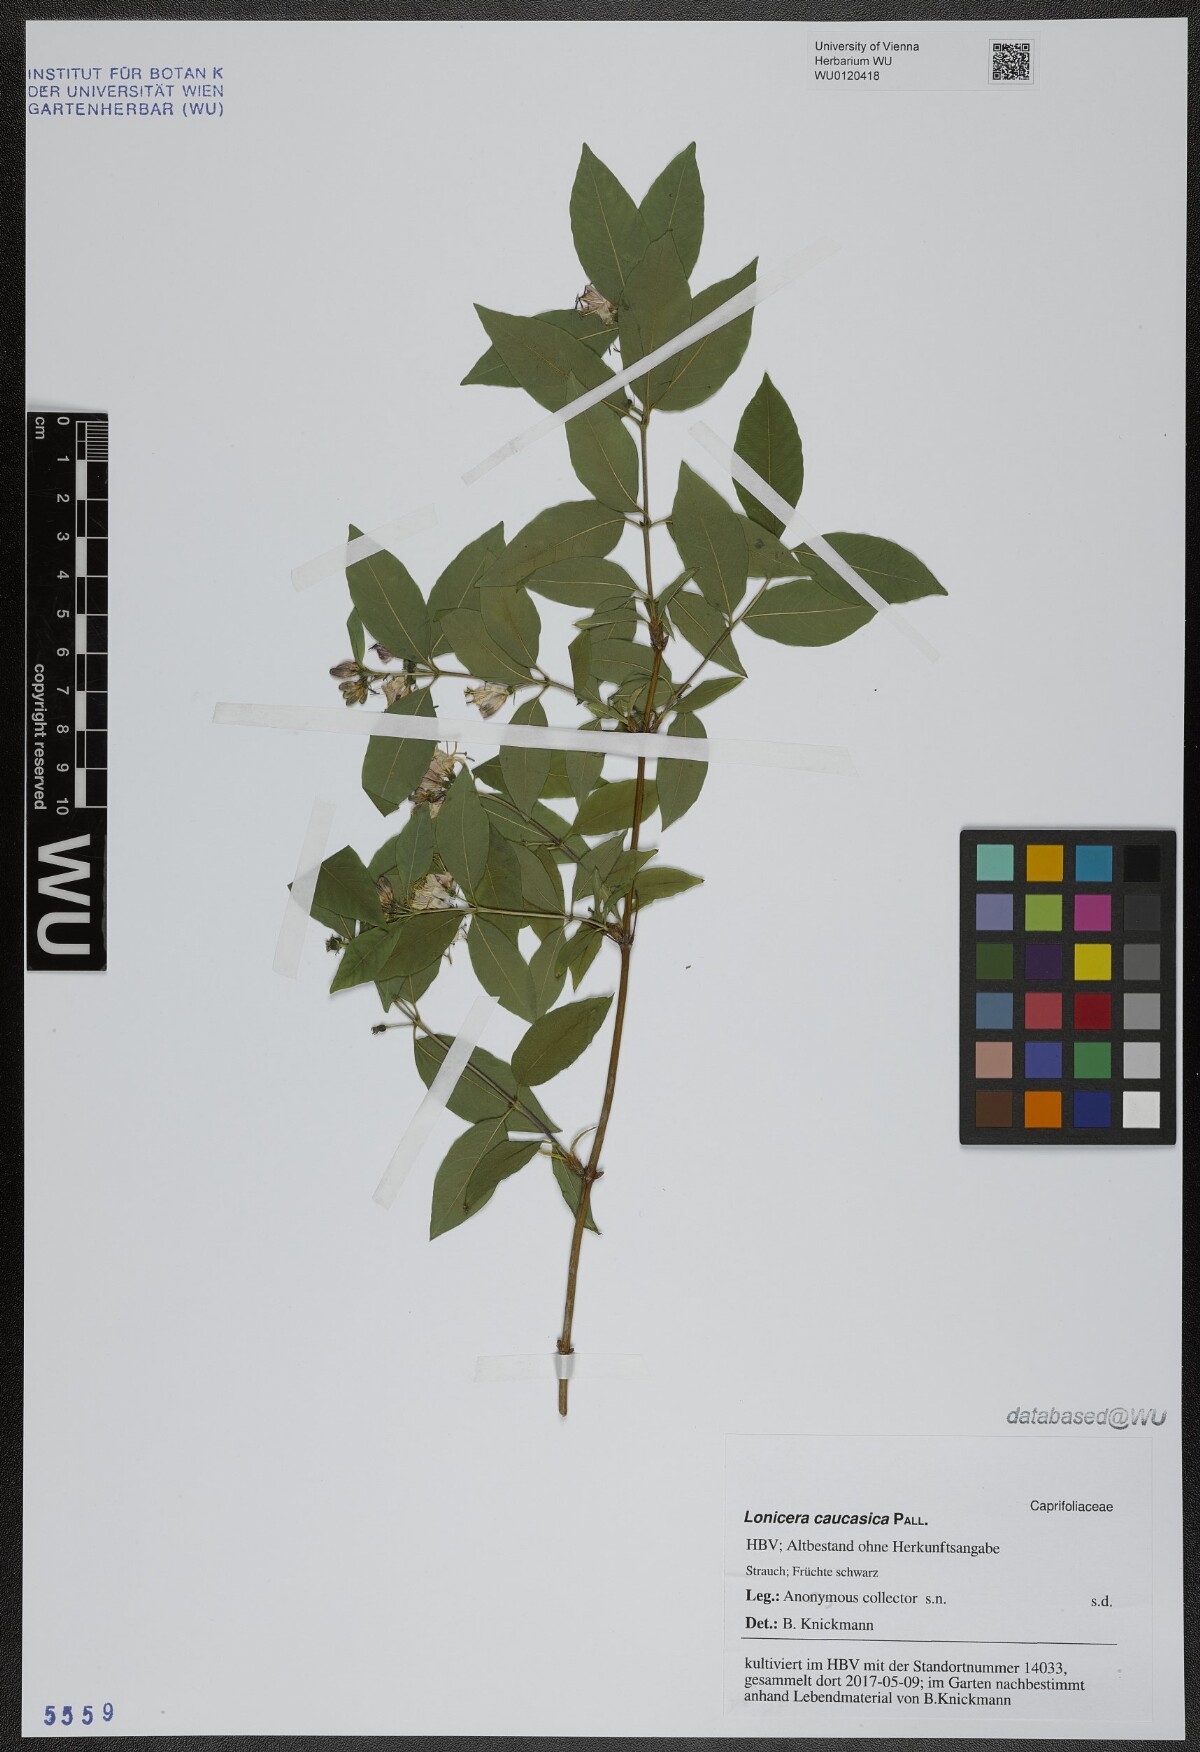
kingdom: Plantae
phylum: Tracheophyta
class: Magnoliopsida
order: Dipsacales
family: Caprifoliaceae
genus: Lonicera
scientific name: Lonicera caucasica
